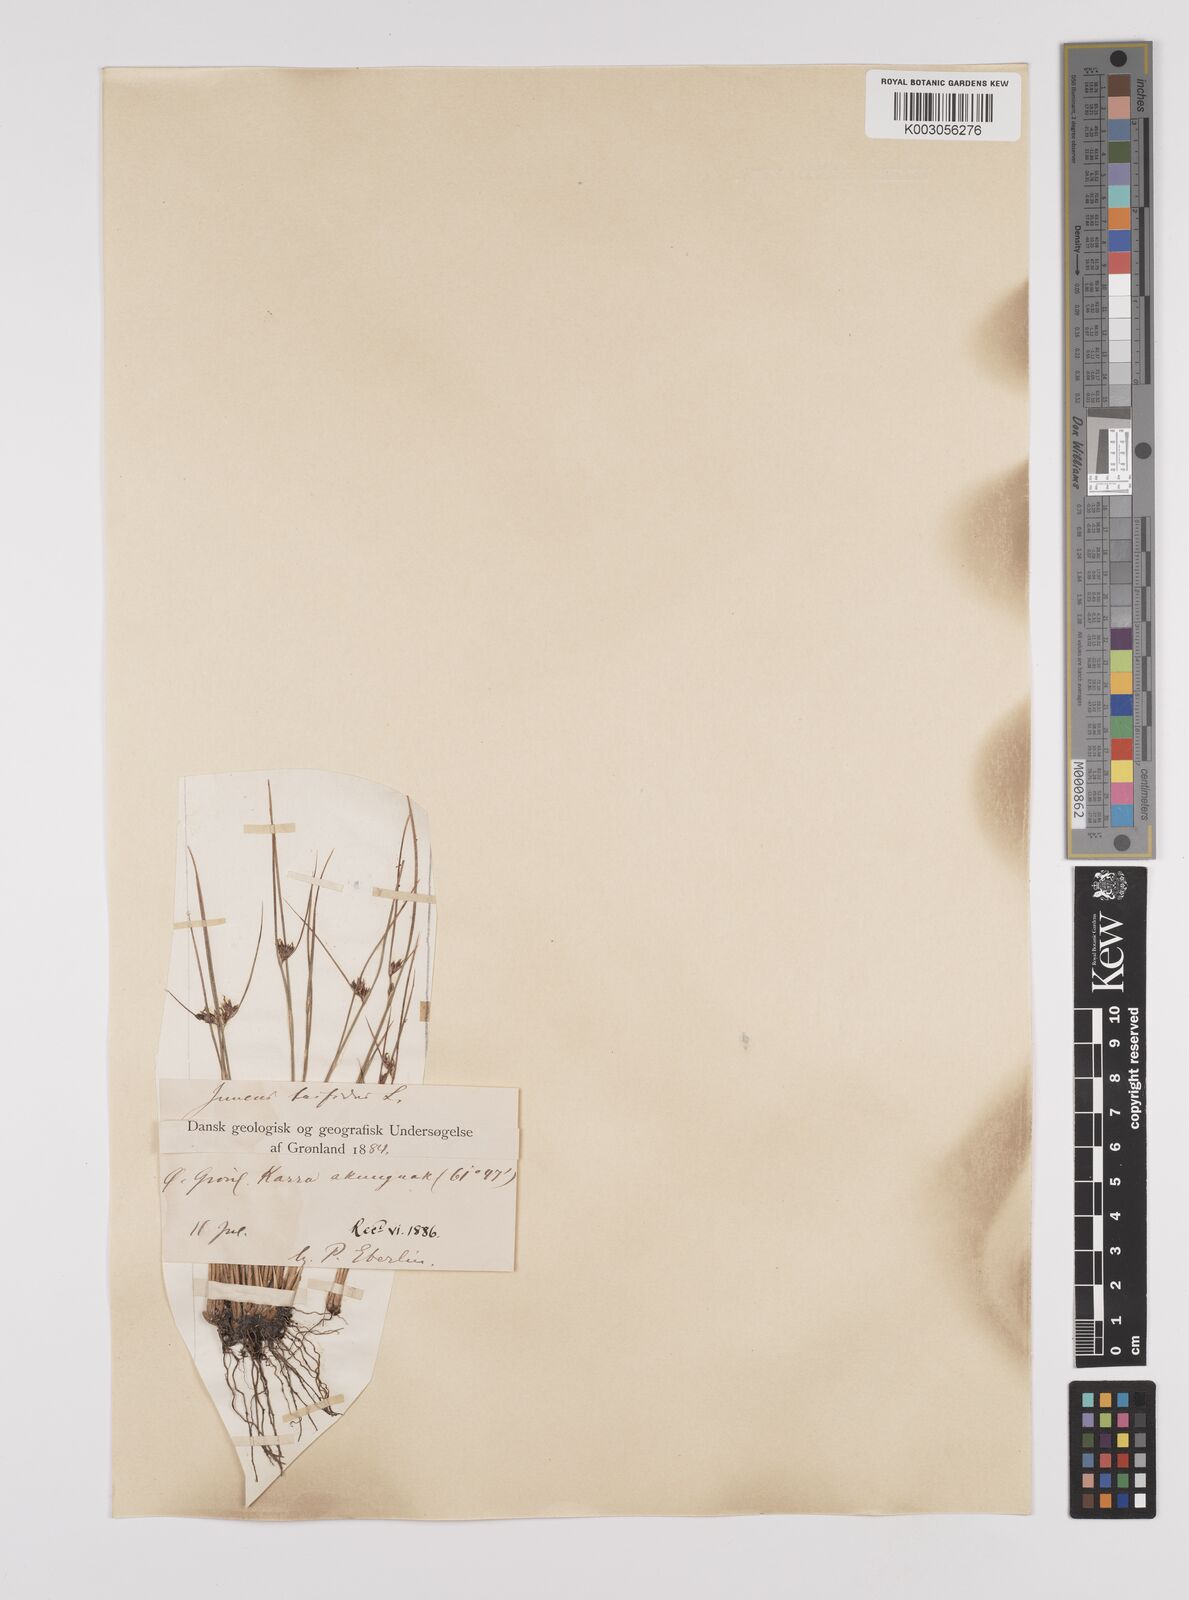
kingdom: Plantae
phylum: Tracheophyta
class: Liliopsida
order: Poales
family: Juncaceae
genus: Oreojuncus
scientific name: Oreojuncus trifidus
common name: Highland rush
